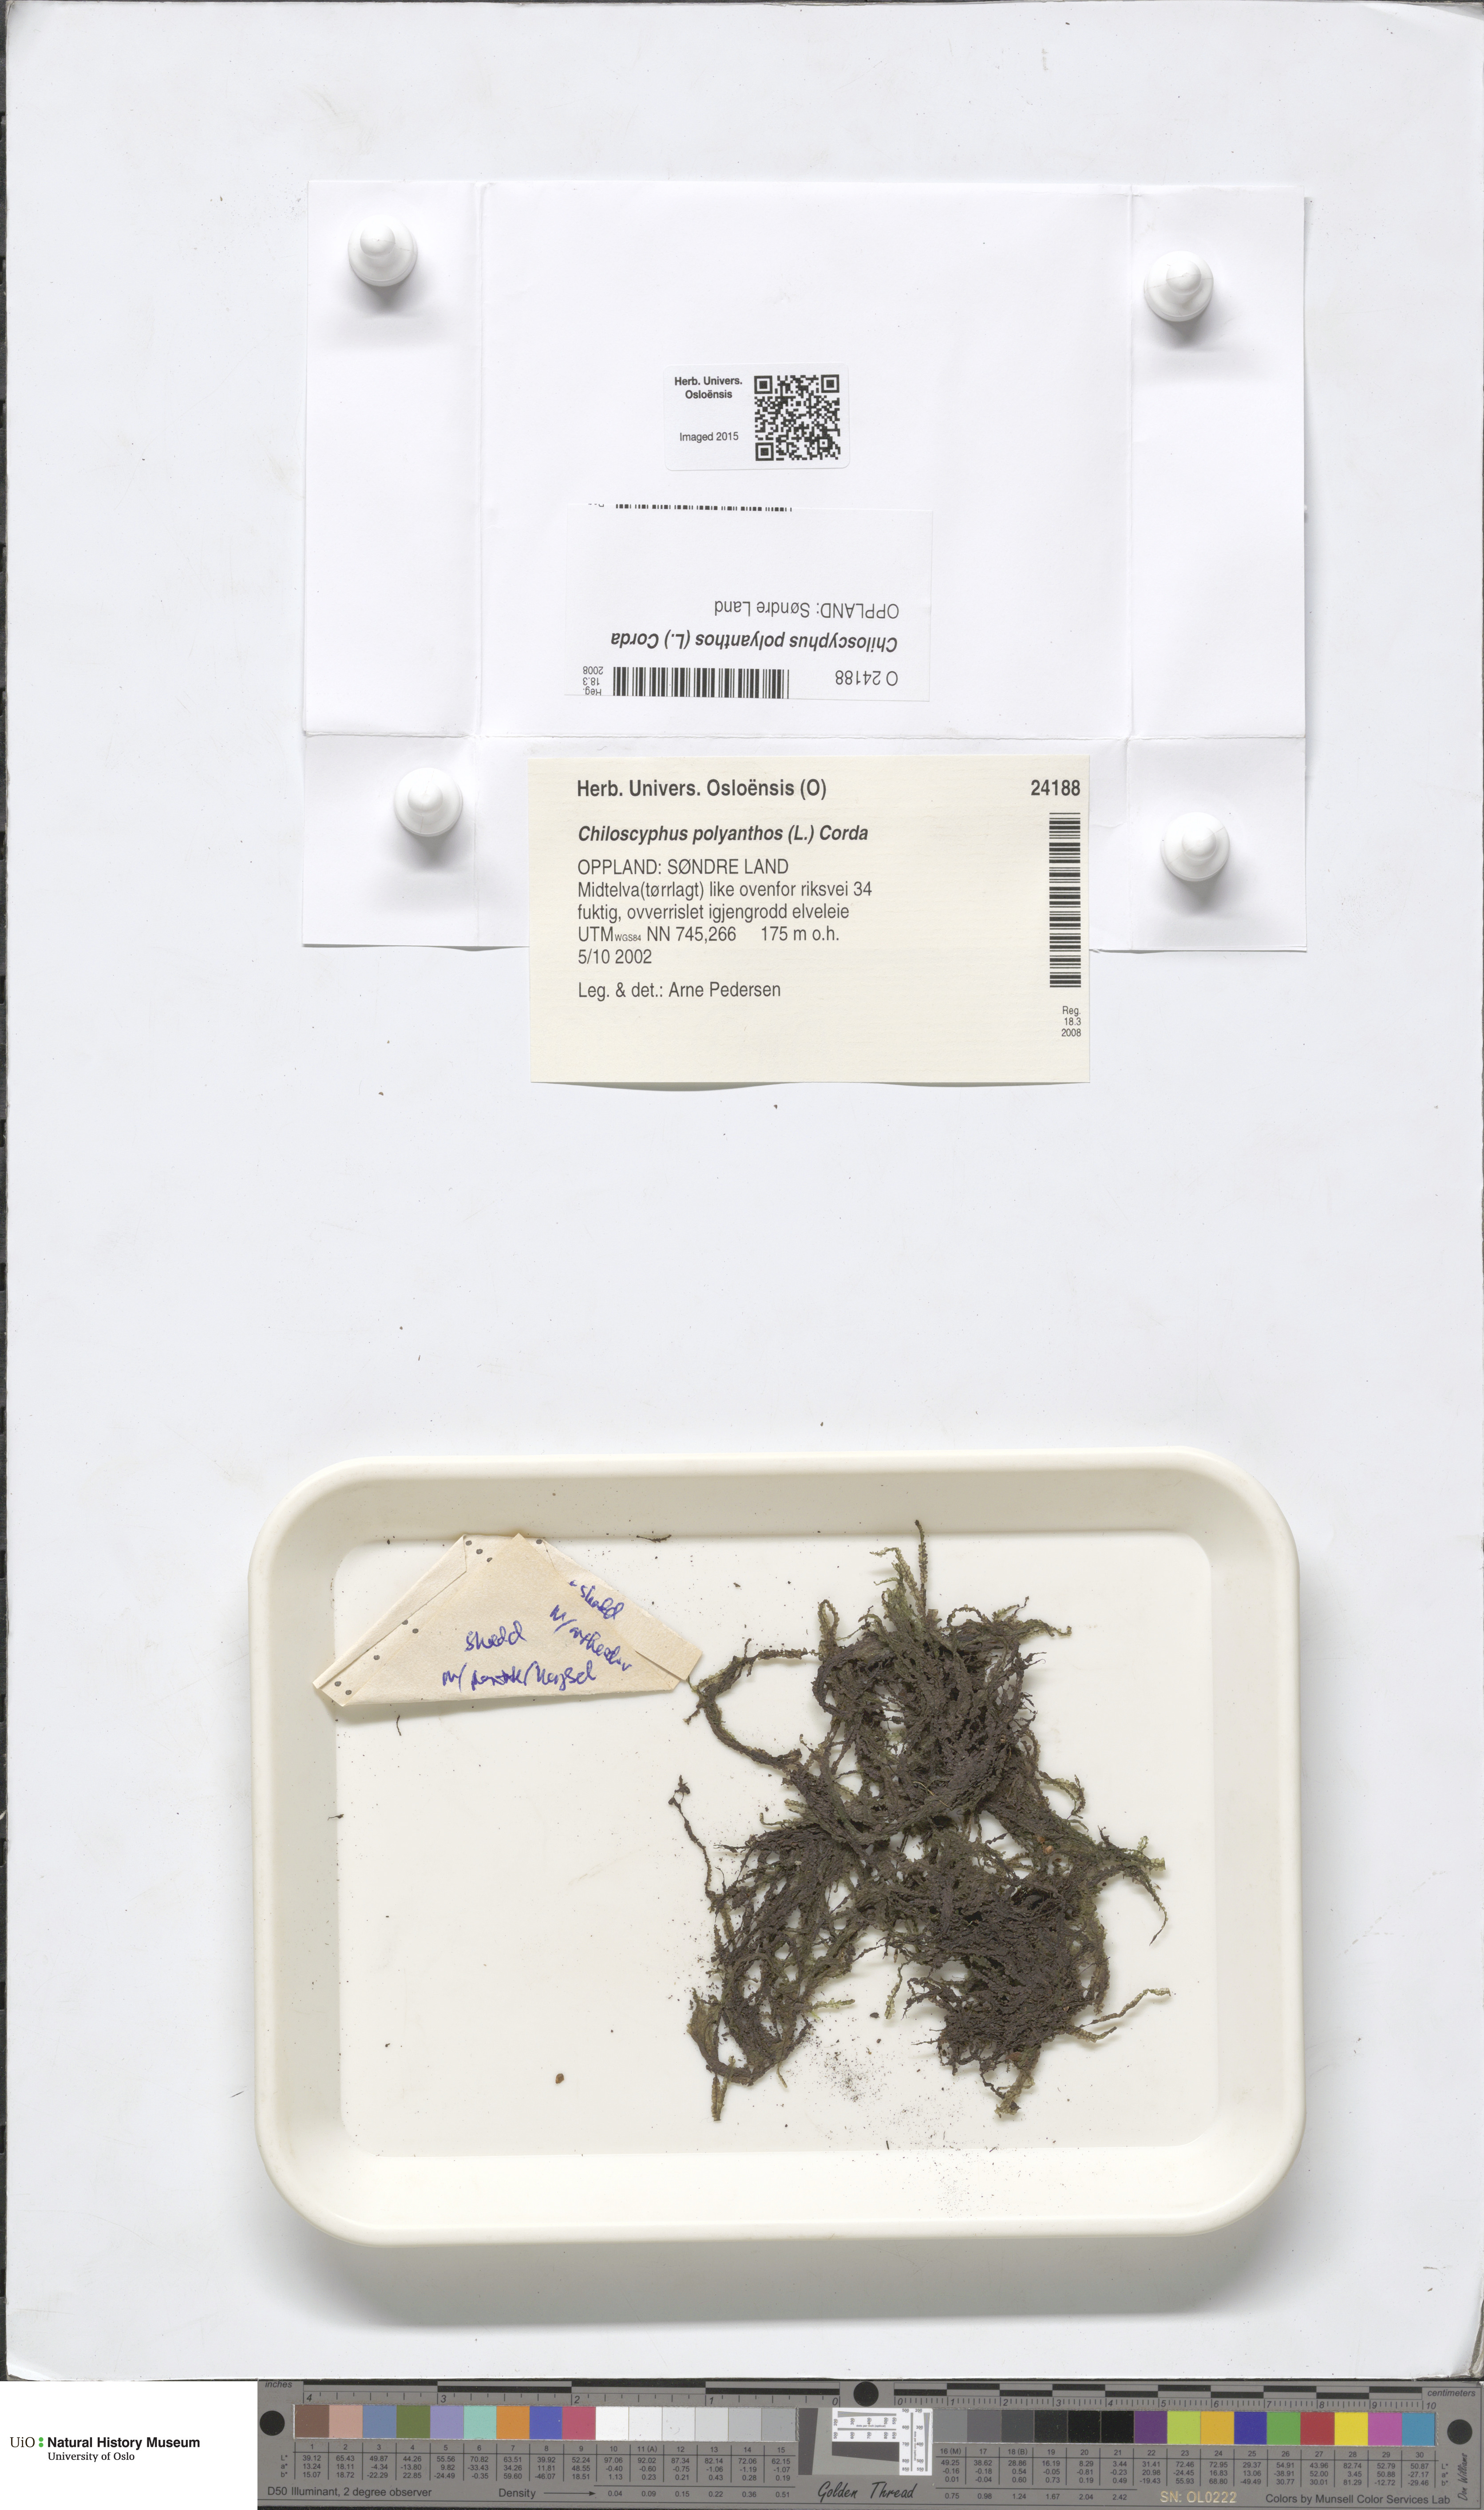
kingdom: Plantae
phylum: Marchantiophyta
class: Jungermanniopsida
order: Jungermanniales
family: Lophocoleaceae
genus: Chiloscyphus
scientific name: Chiloscyphus polyanthos
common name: Square-leaved crestwort
